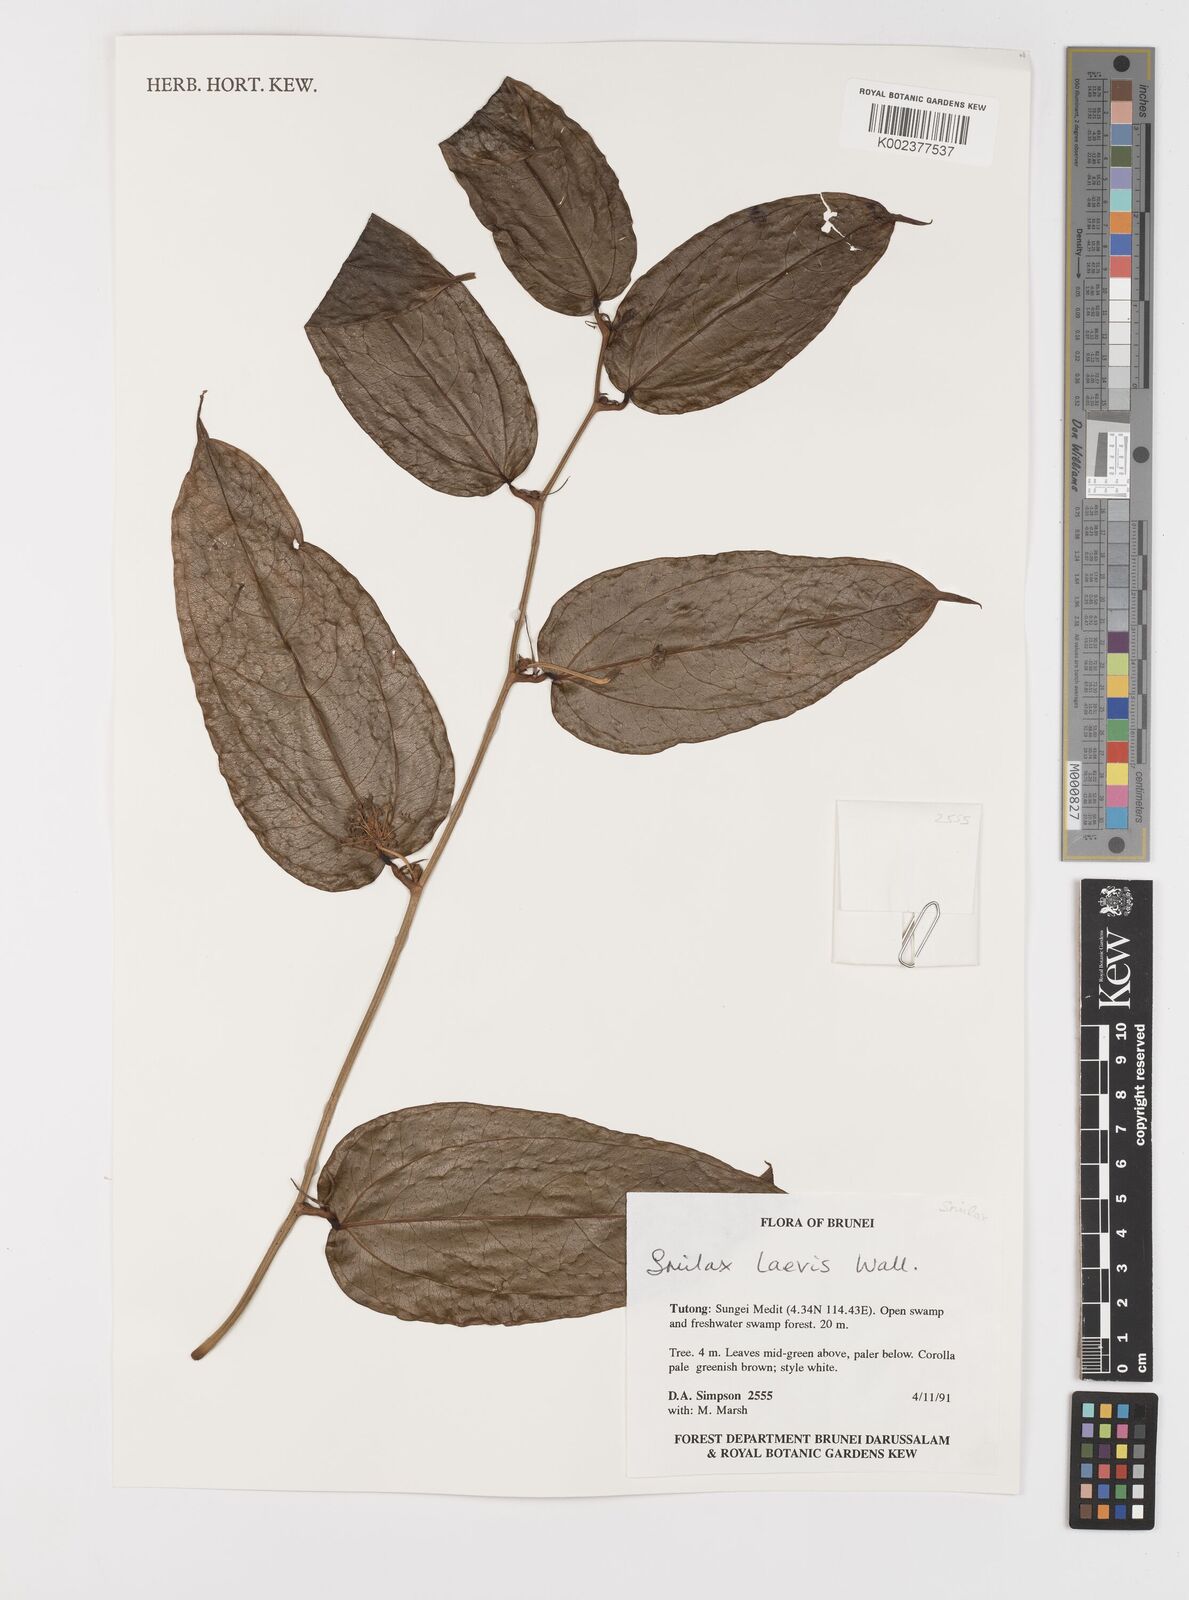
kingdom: Plantae
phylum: Tracheophyta
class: Liliopsida
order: Liliales
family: Smilacaceae
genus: Smilax
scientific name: Smilax laevis
